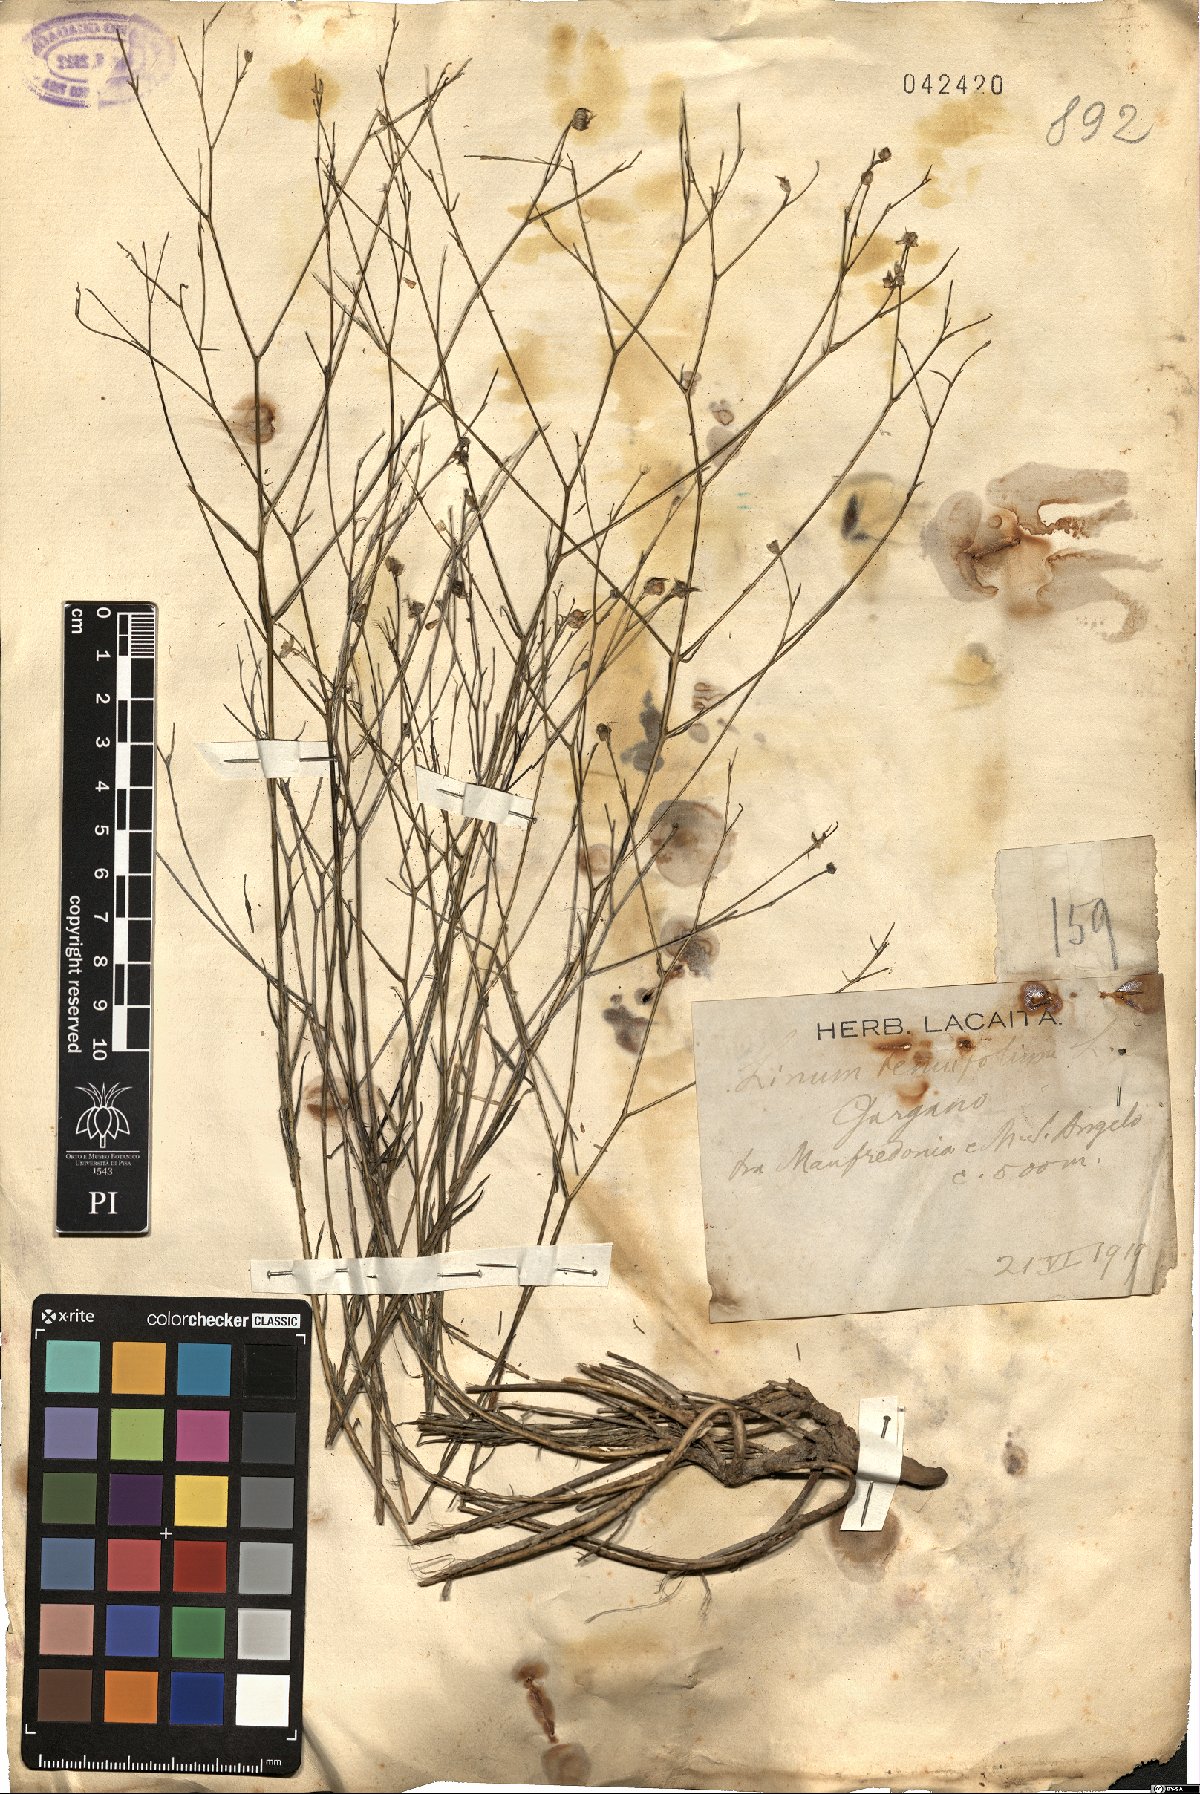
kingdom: Plantae
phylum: Tracheophyta
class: Magnoliopsida
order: Malpighiales
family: Linaceae
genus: Linum
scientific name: Linum tenuifolium
